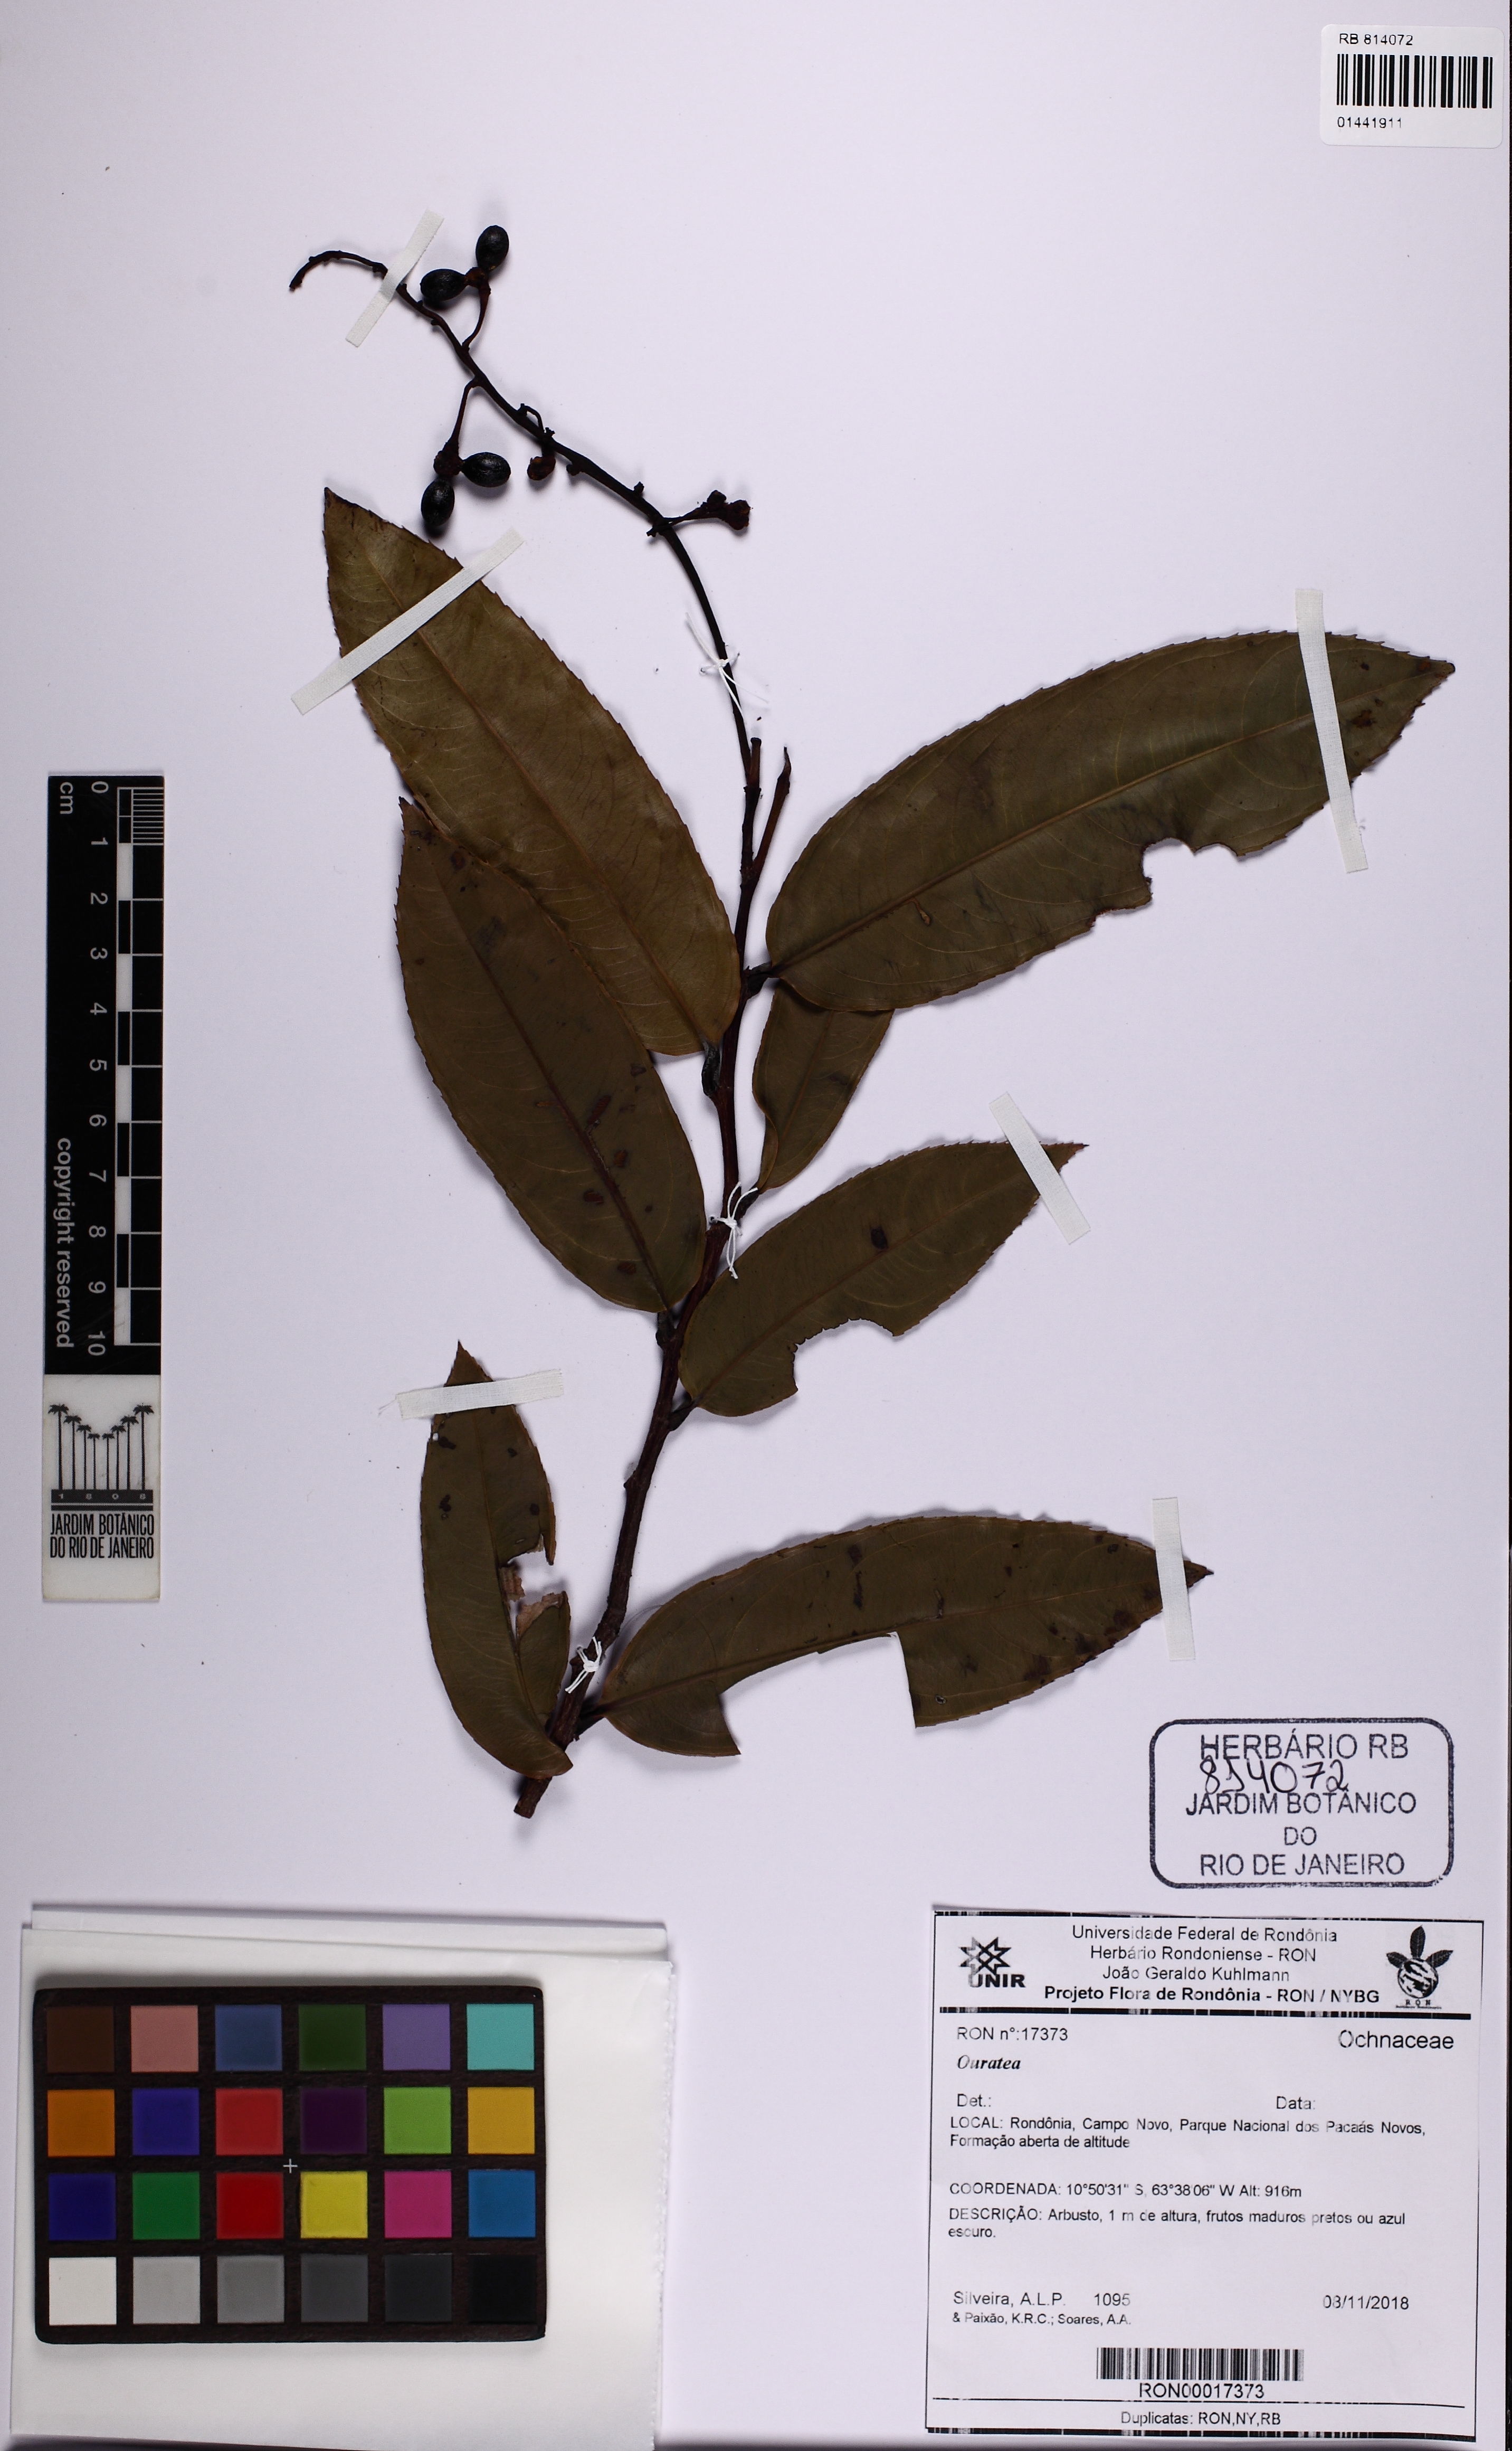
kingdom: Plantae
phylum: Tracheophyta
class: Magnoliopsida
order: Malpighiales
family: Ochnaceae
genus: Ouratea
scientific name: Ouratea
